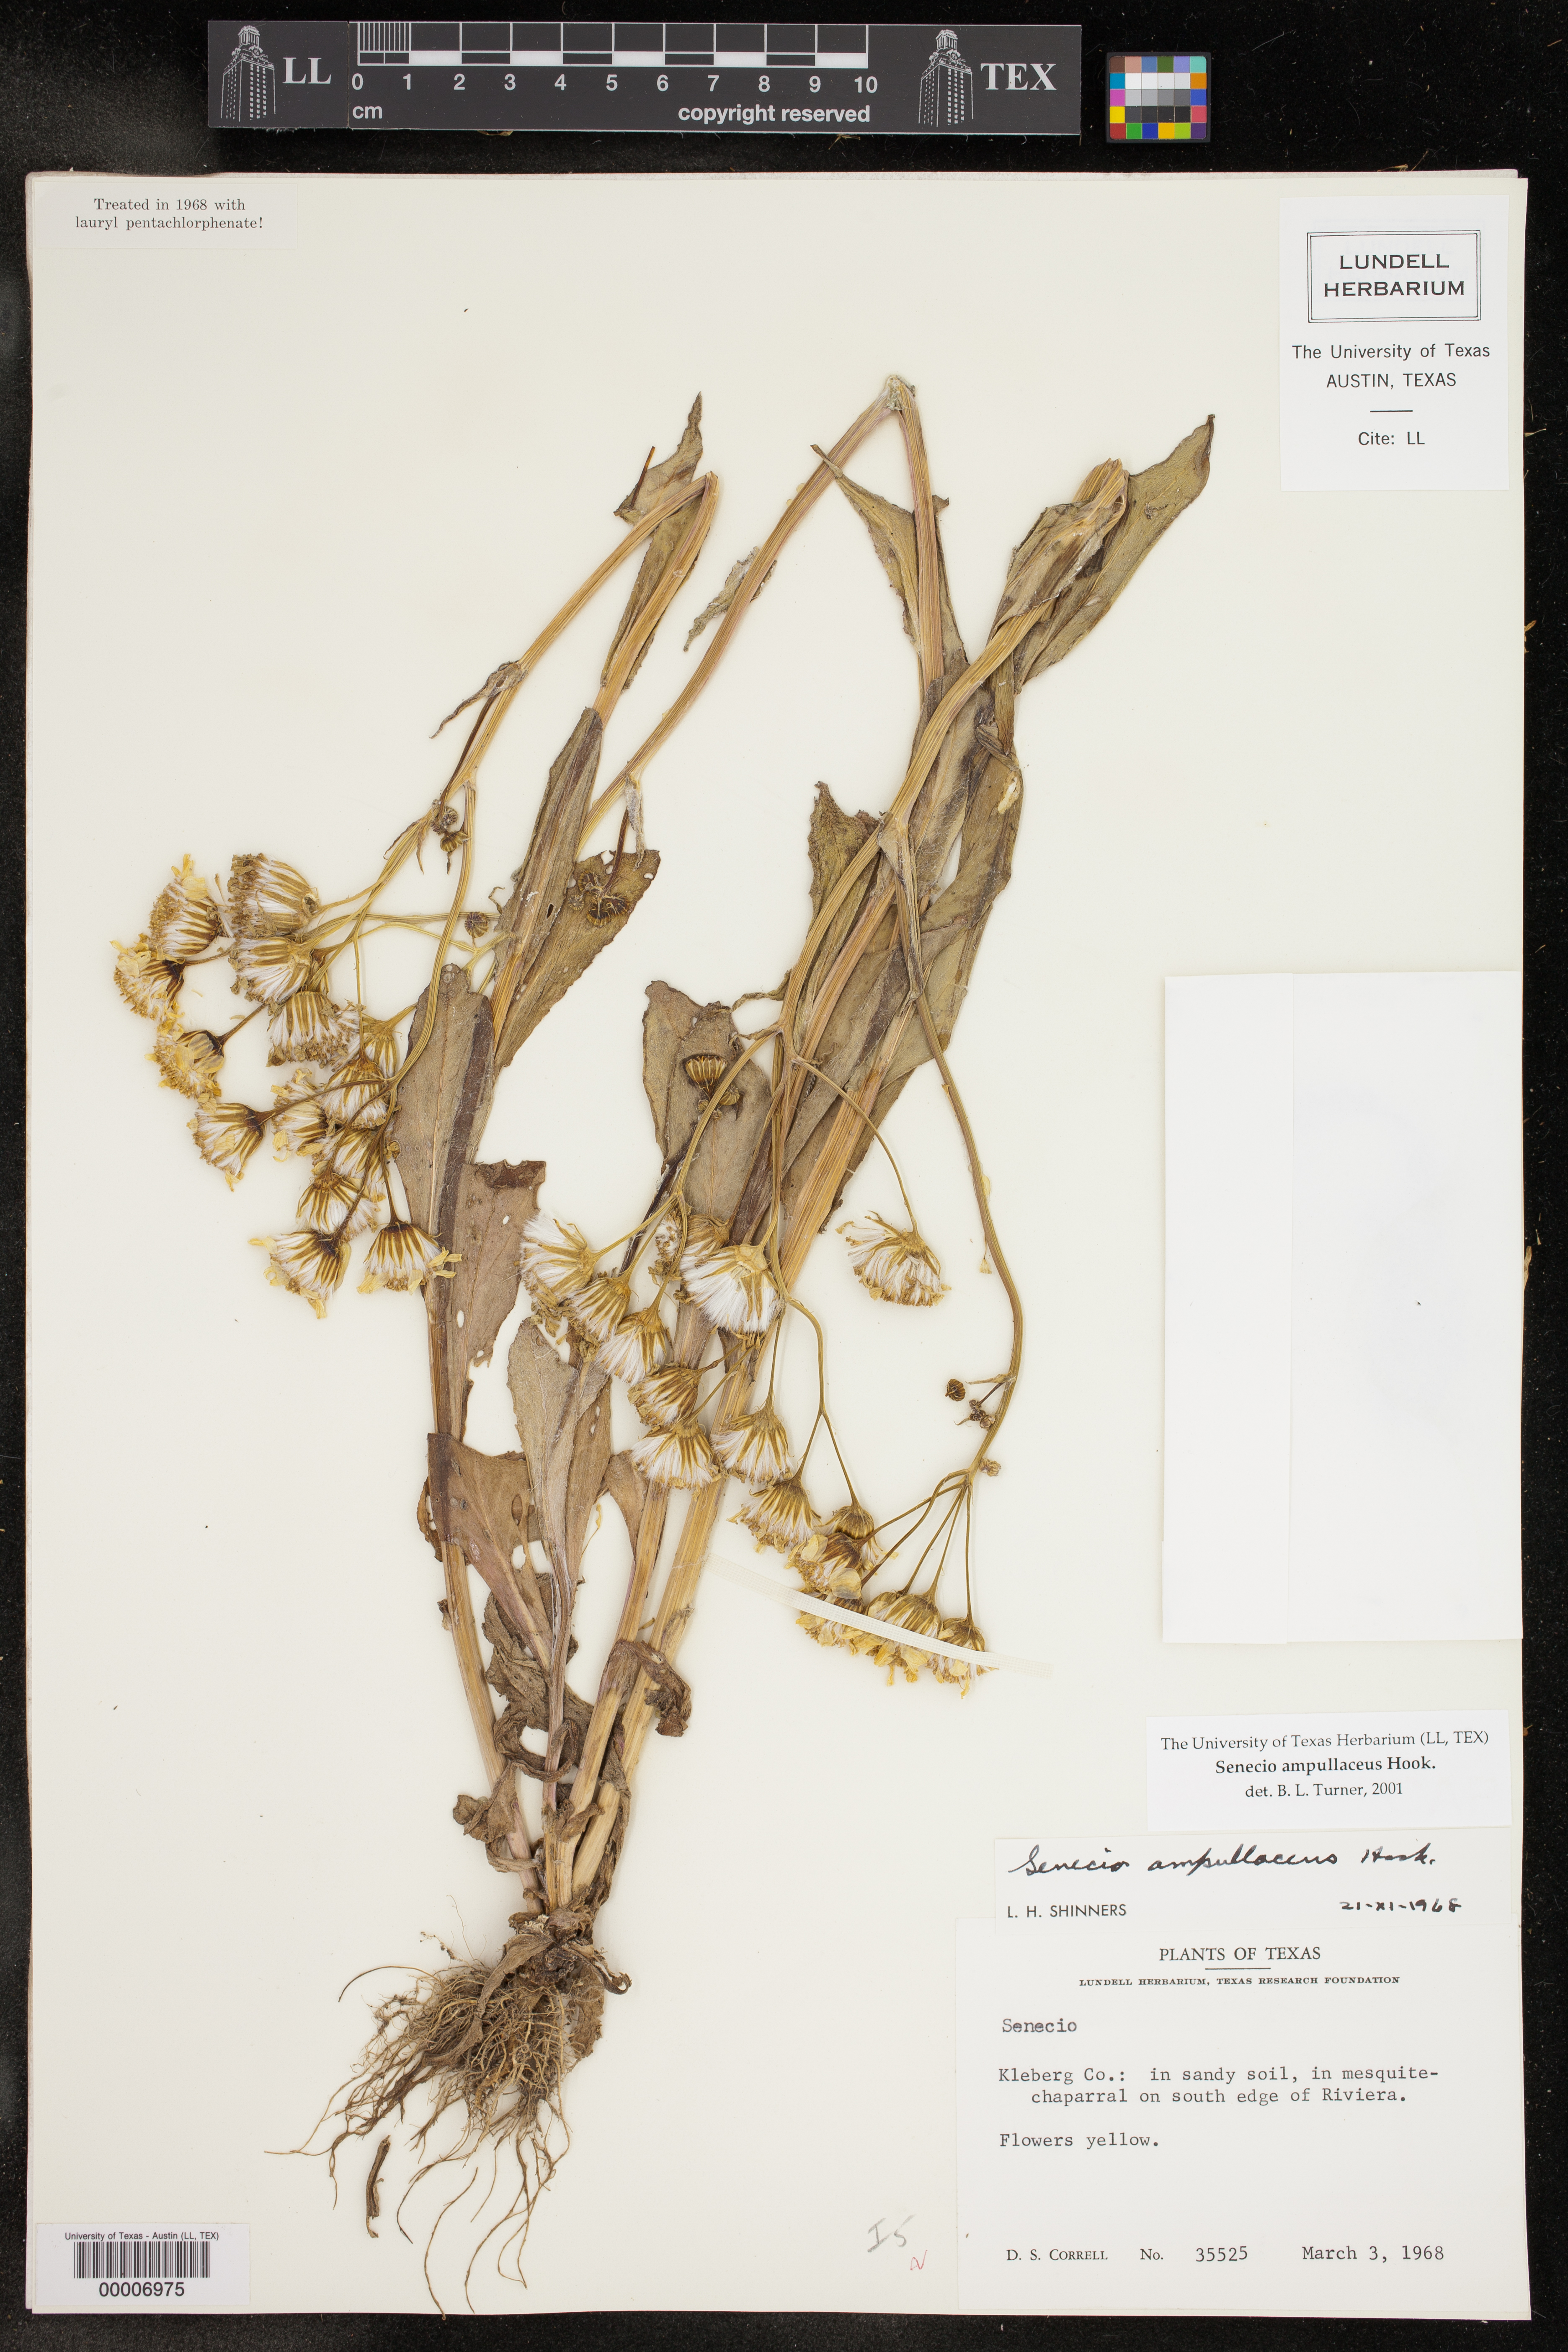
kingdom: Plantae
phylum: Tracheophyta
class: Magnoliopsida
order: Asterales
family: Asteraceae
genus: Senecio
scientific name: Senecio ampullaceus
